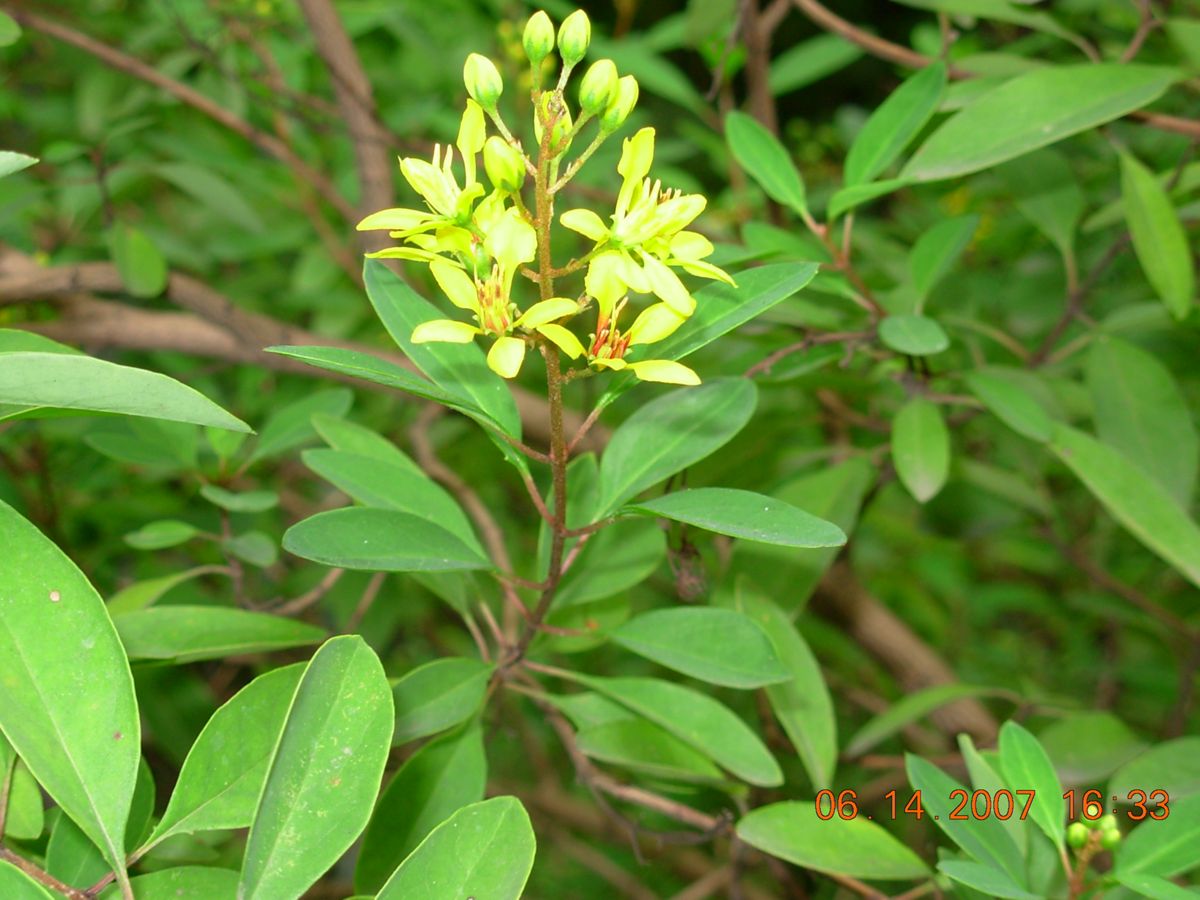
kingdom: Plantae
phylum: Tracheophyta
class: Magnoliopsida
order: Malpighiales
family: Malpighiaceae
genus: Galphimia
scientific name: Galphimia glauca
